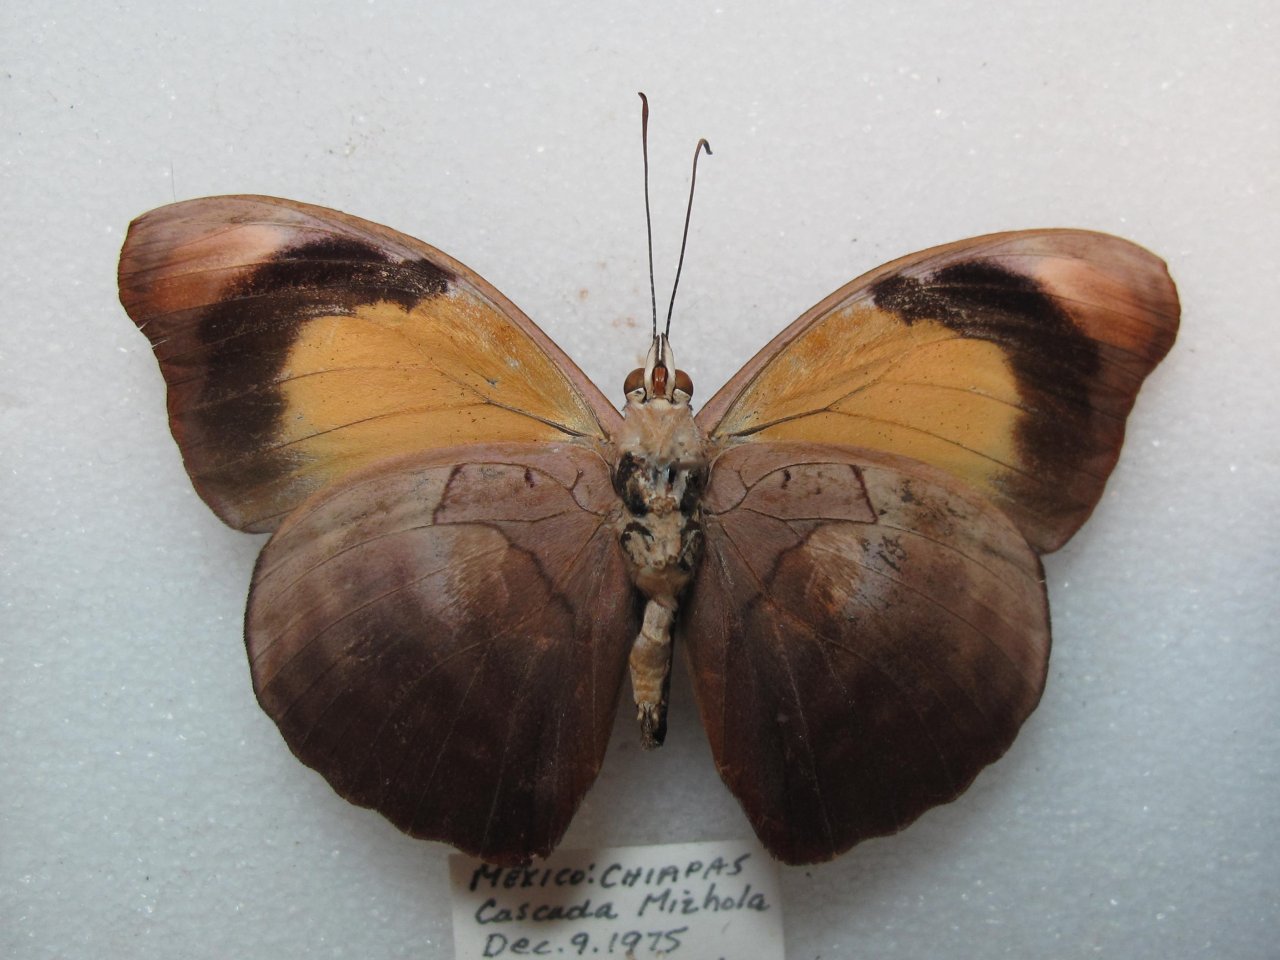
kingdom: Animalia
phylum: Arthropoda
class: Insecta
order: Lepidoptera
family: Nymphalidae
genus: Catonephele
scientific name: Catonephele numilia
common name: Blue-frosted Banner
